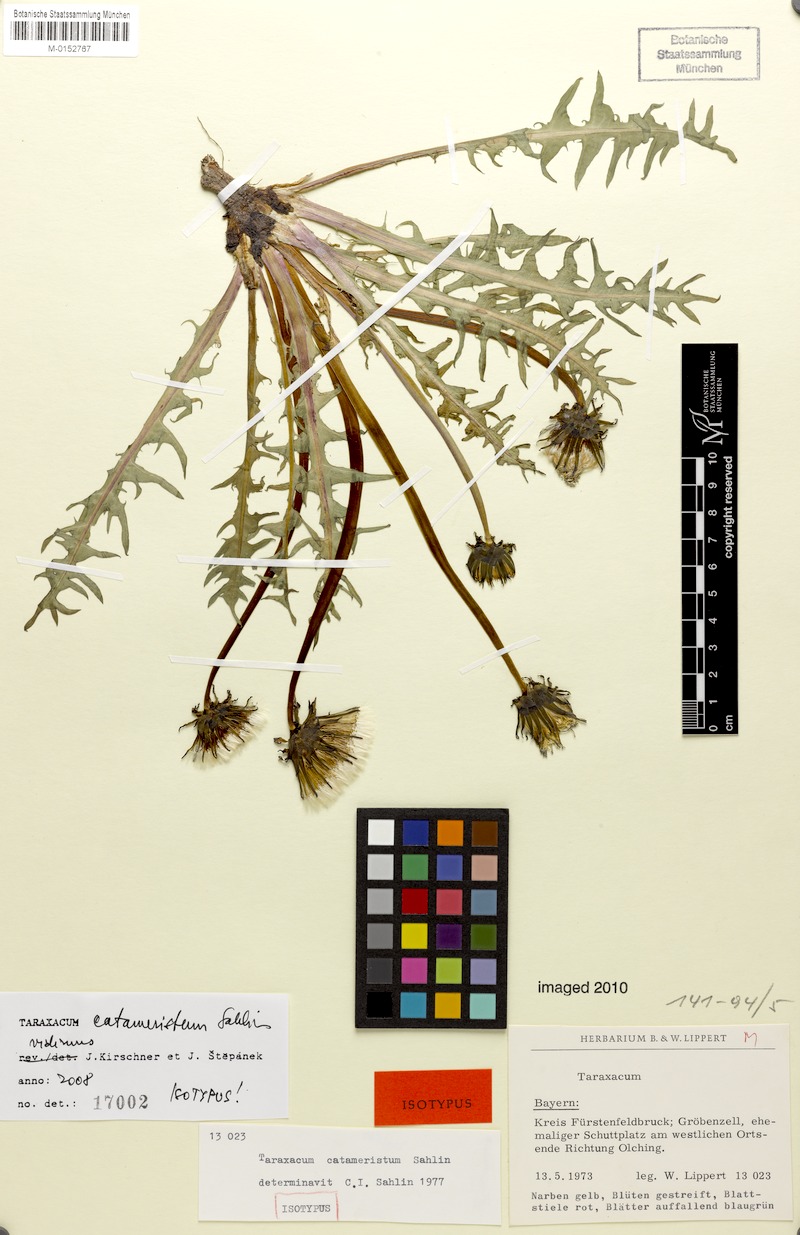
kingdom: Plantae
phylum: Tracheophyta
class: Magnoliopsida
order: Asterales
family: Asteraceae
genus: Taraxacum
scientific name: Taraxacum gentile
